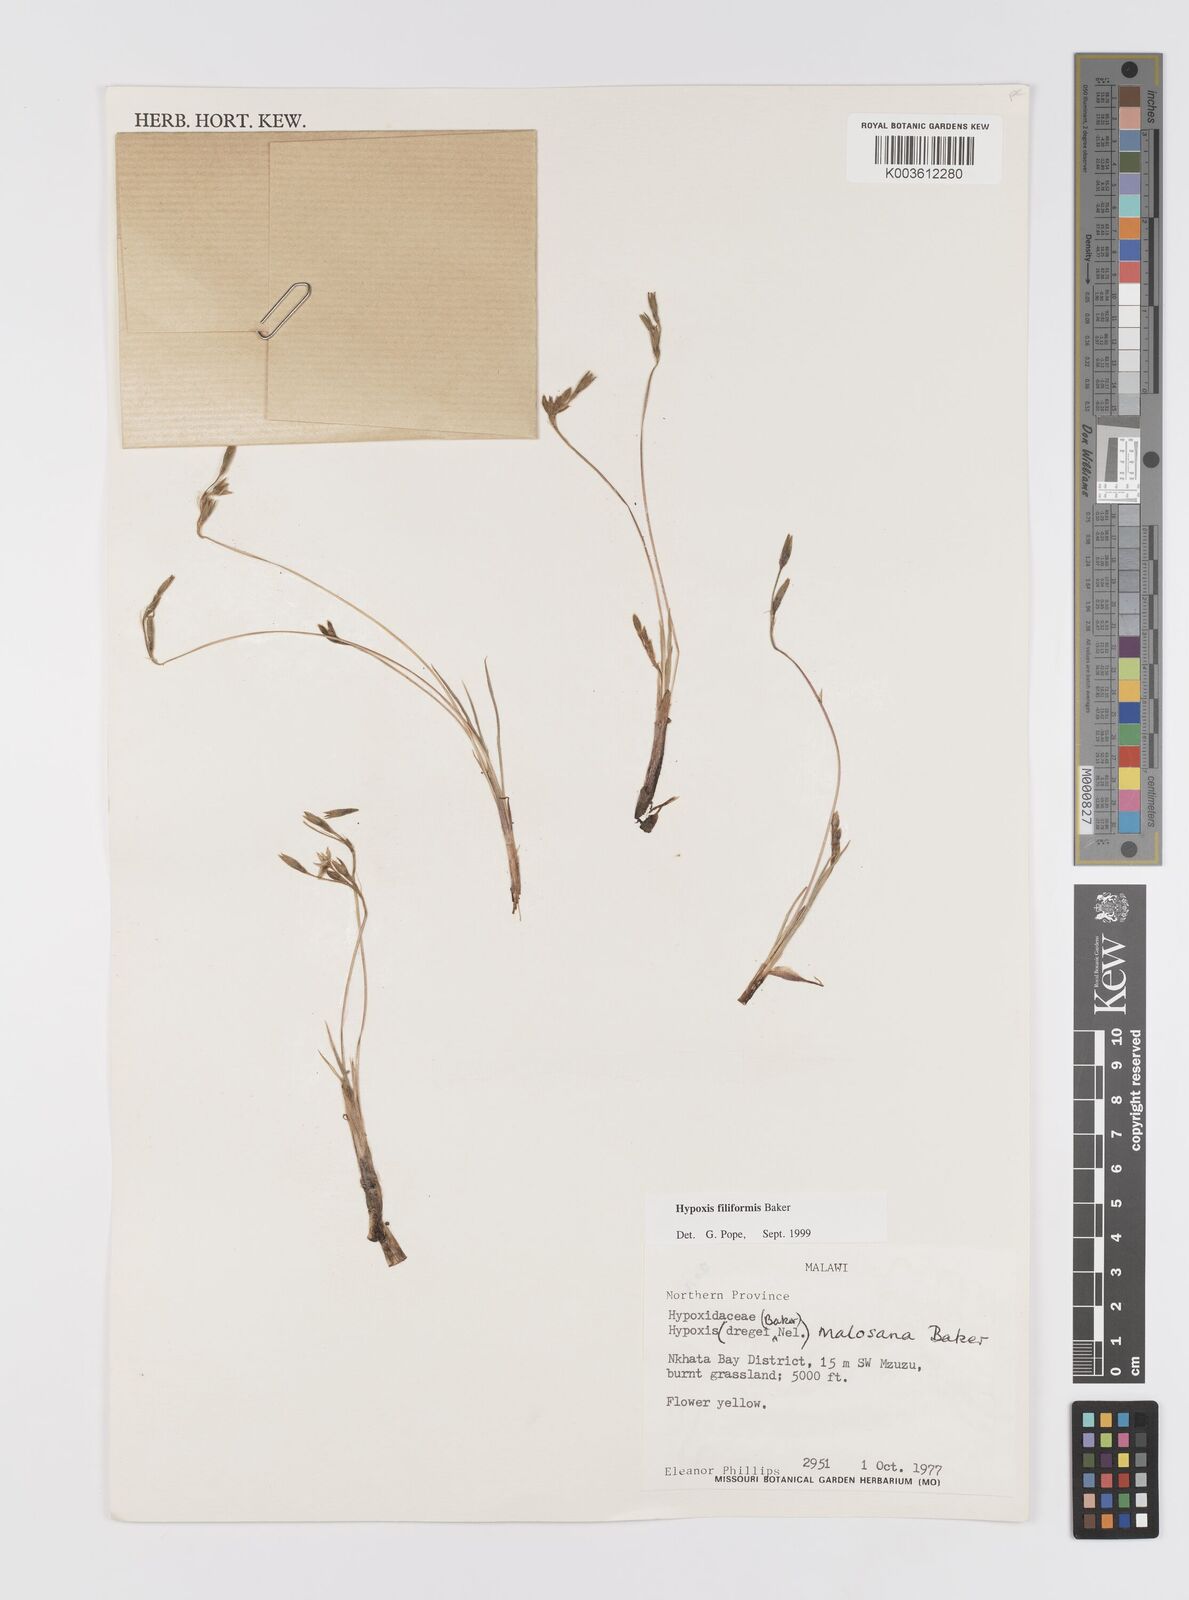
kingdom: Plantae
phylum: Tracheophyta
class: Liliopsida
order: Asparagales
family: Hypoxidaceae
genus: Hypoxis
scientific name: Hypoxis filiformis
